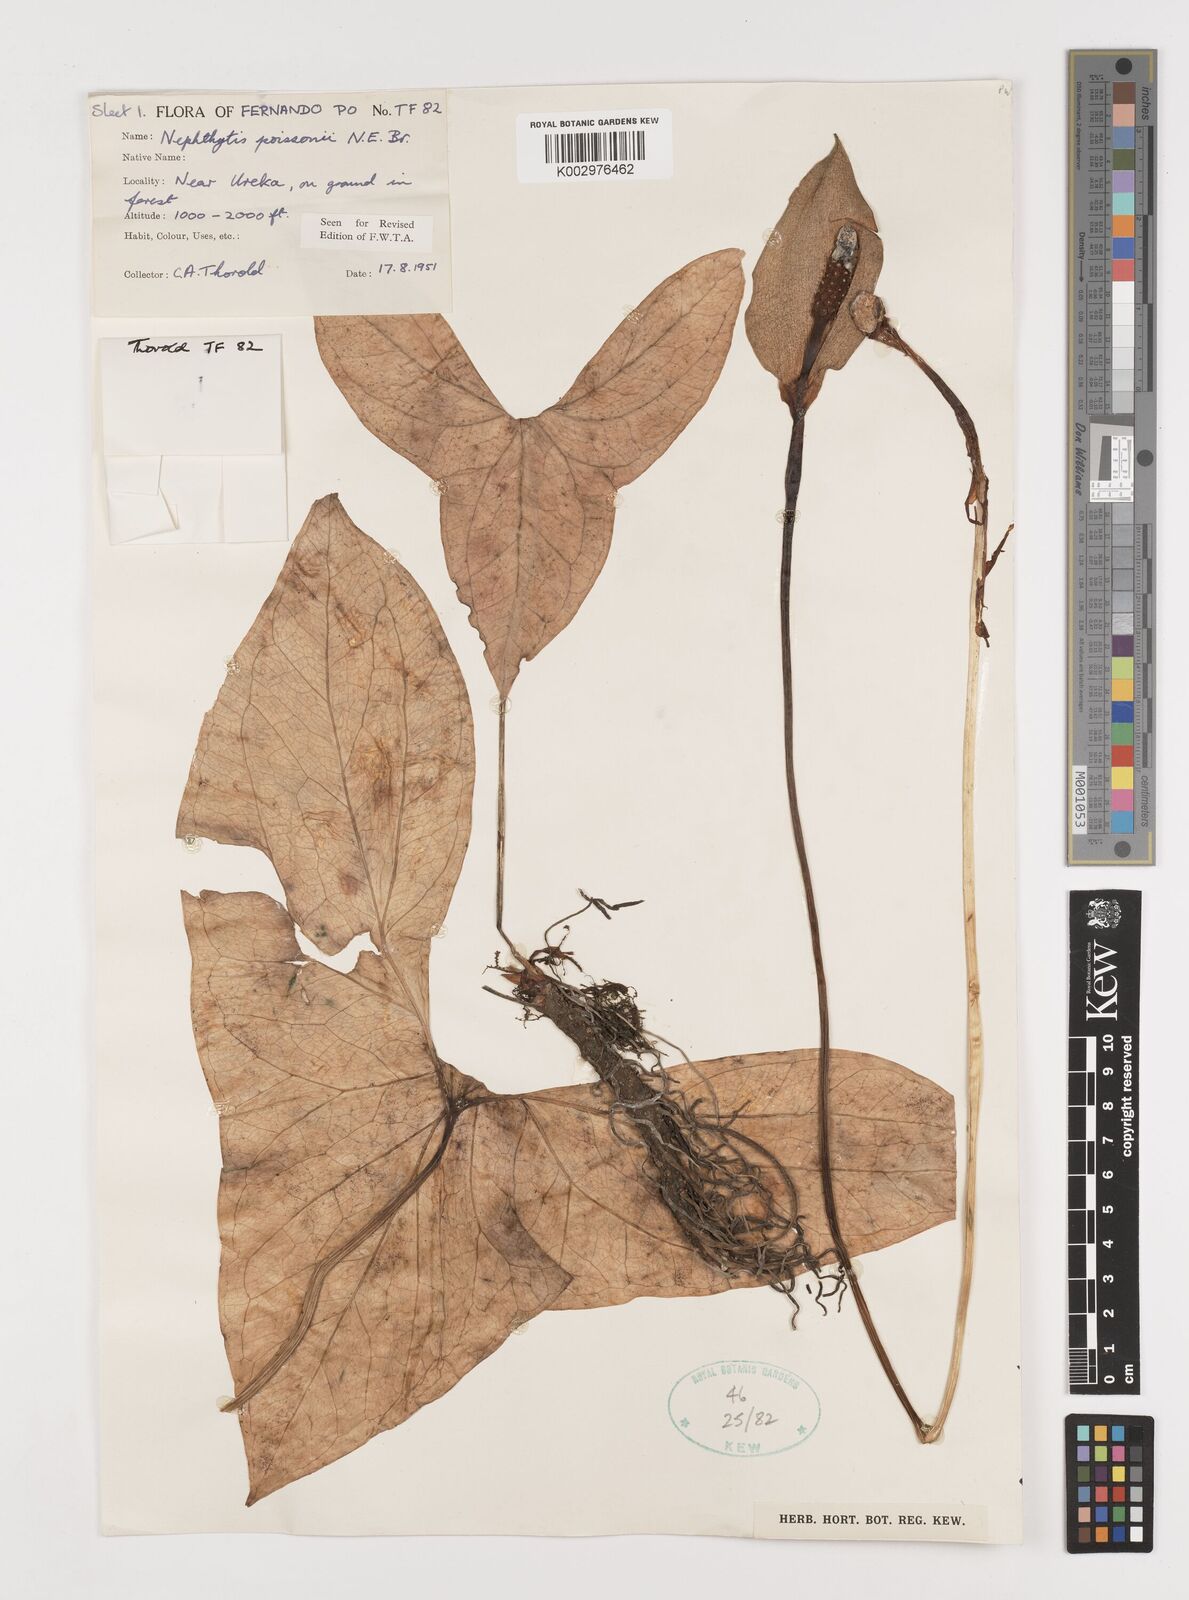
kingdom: Plantae
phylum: Tracheophyta
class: Liliopsida
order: Alismatales
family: Araceae
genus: Nephthytis
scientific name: Nephthytis poissonii
